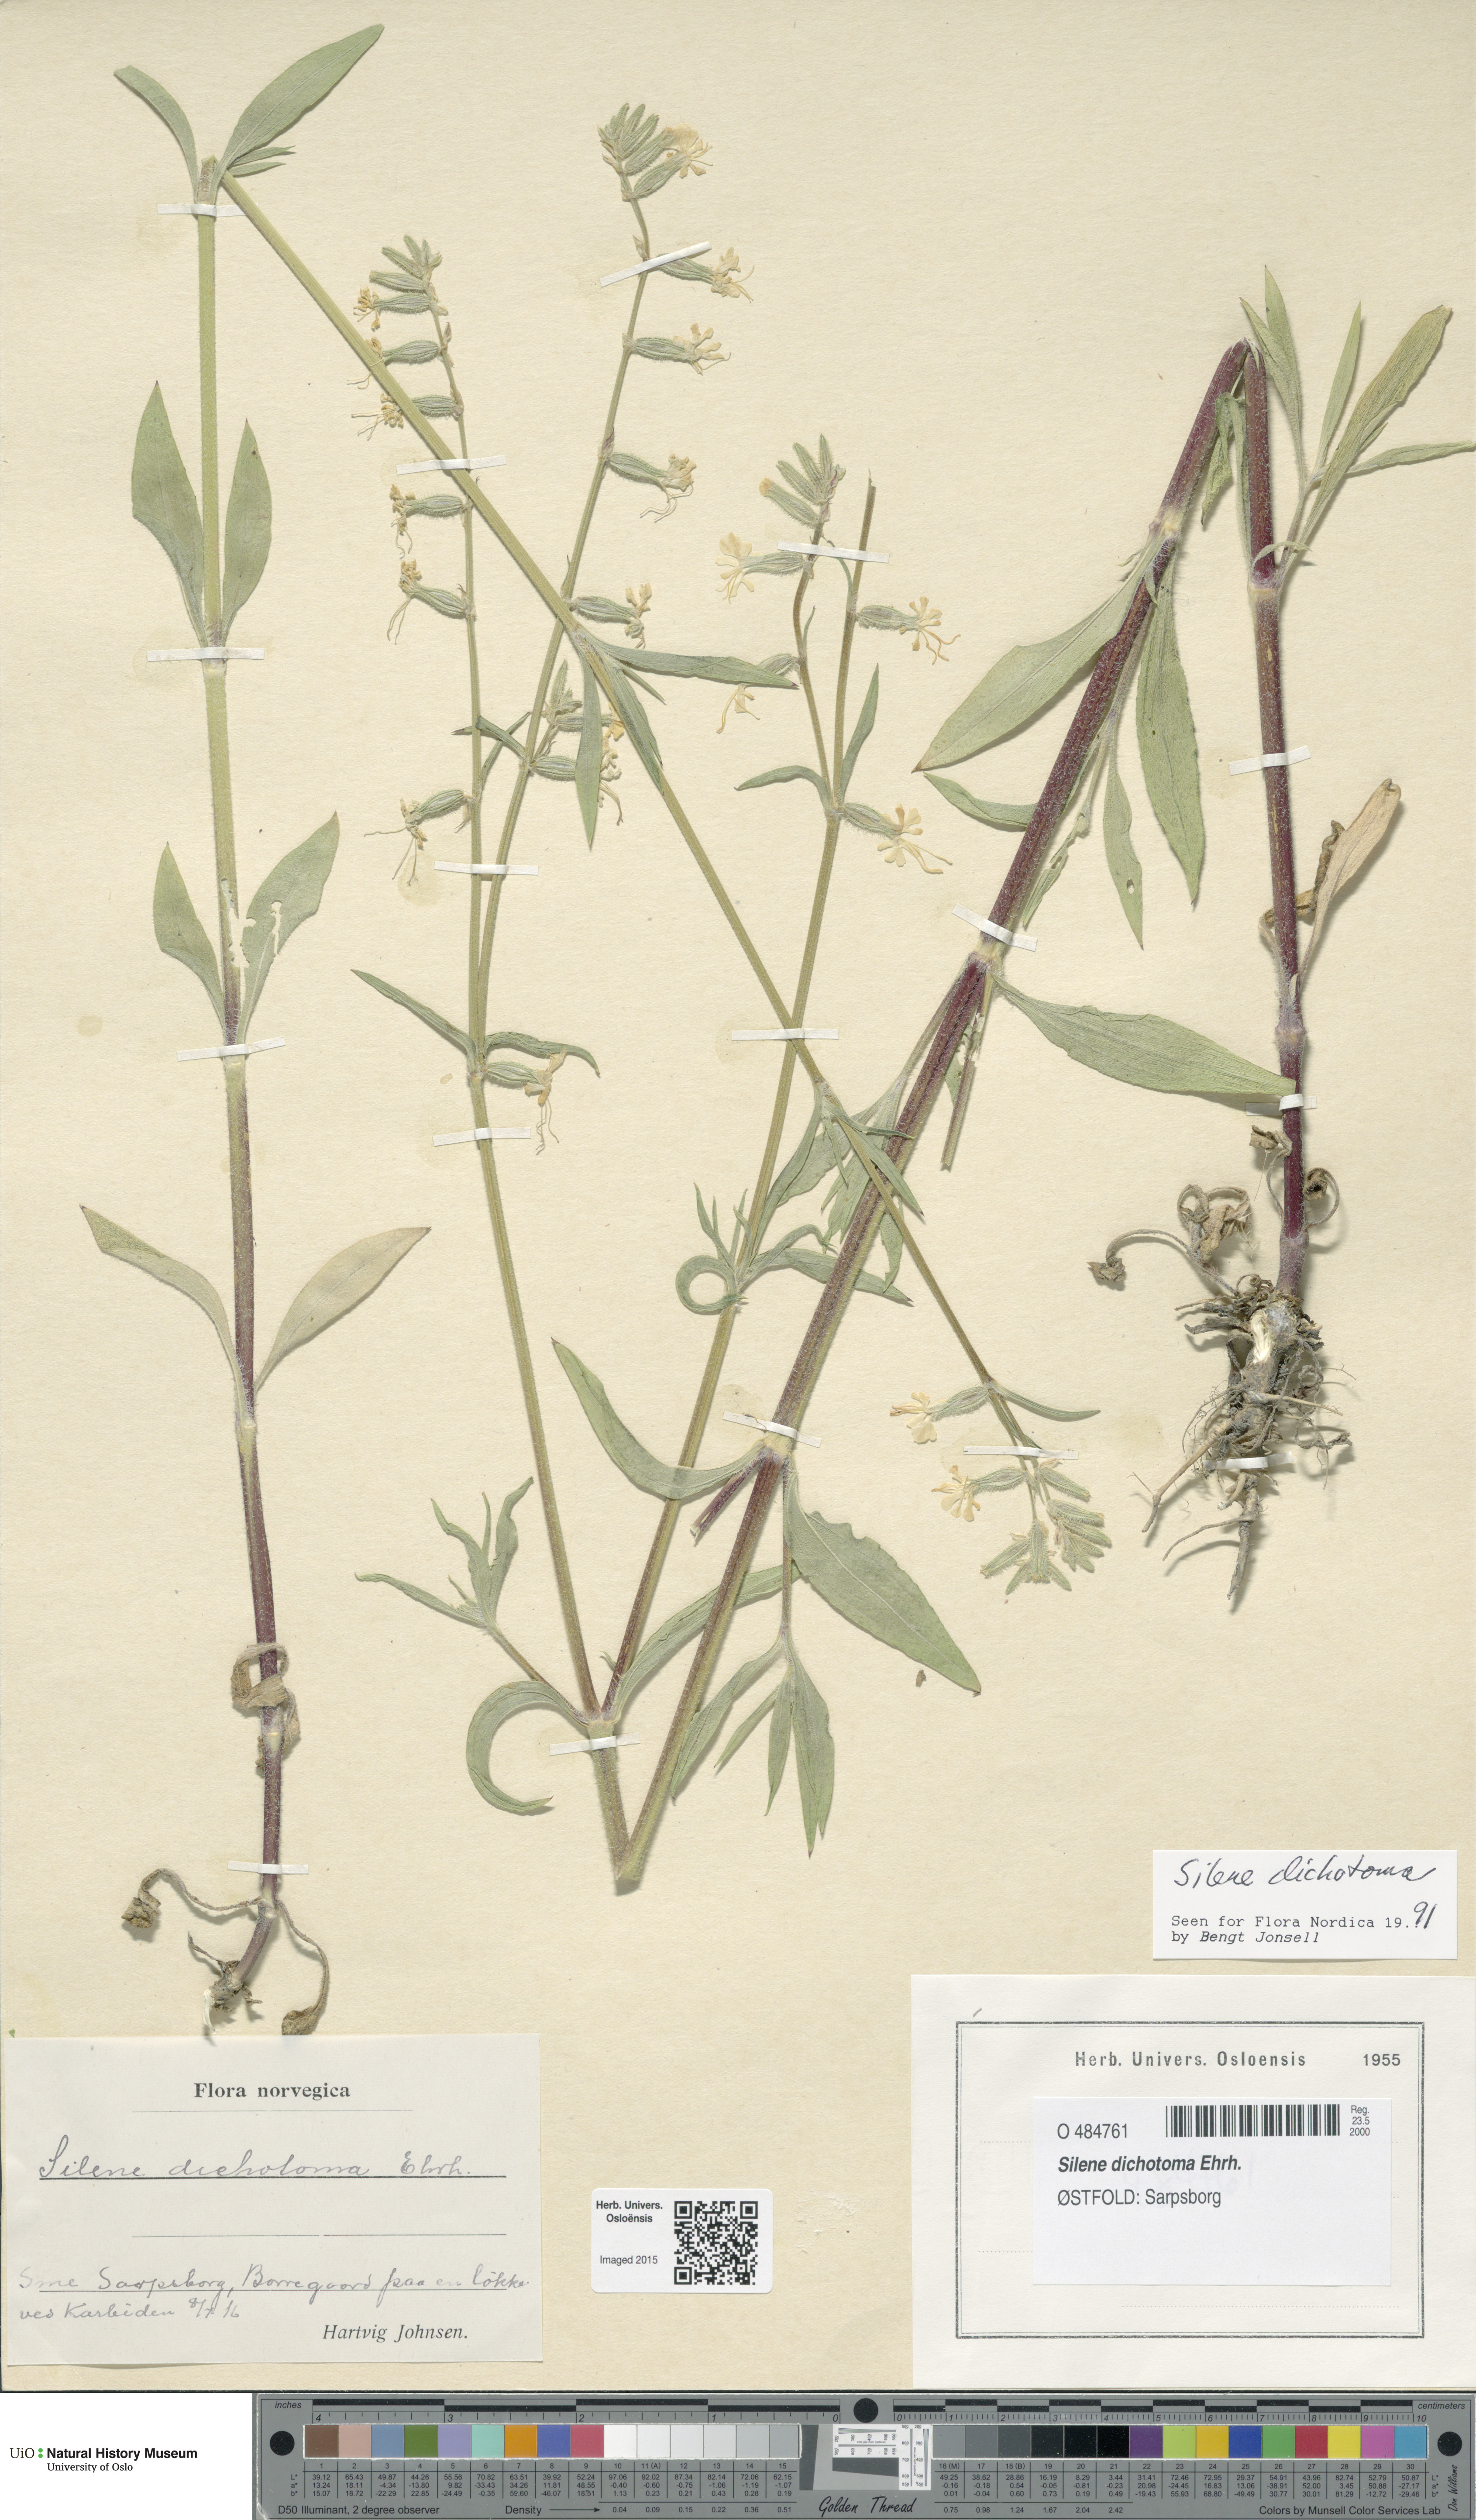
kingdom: Plantae
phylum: Tracheophyta
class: Magnoliopsida
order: Caryophyllales
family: Caryophyllaceae
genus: Silene
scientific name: Silene dichotoma
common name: Forked catchfly
